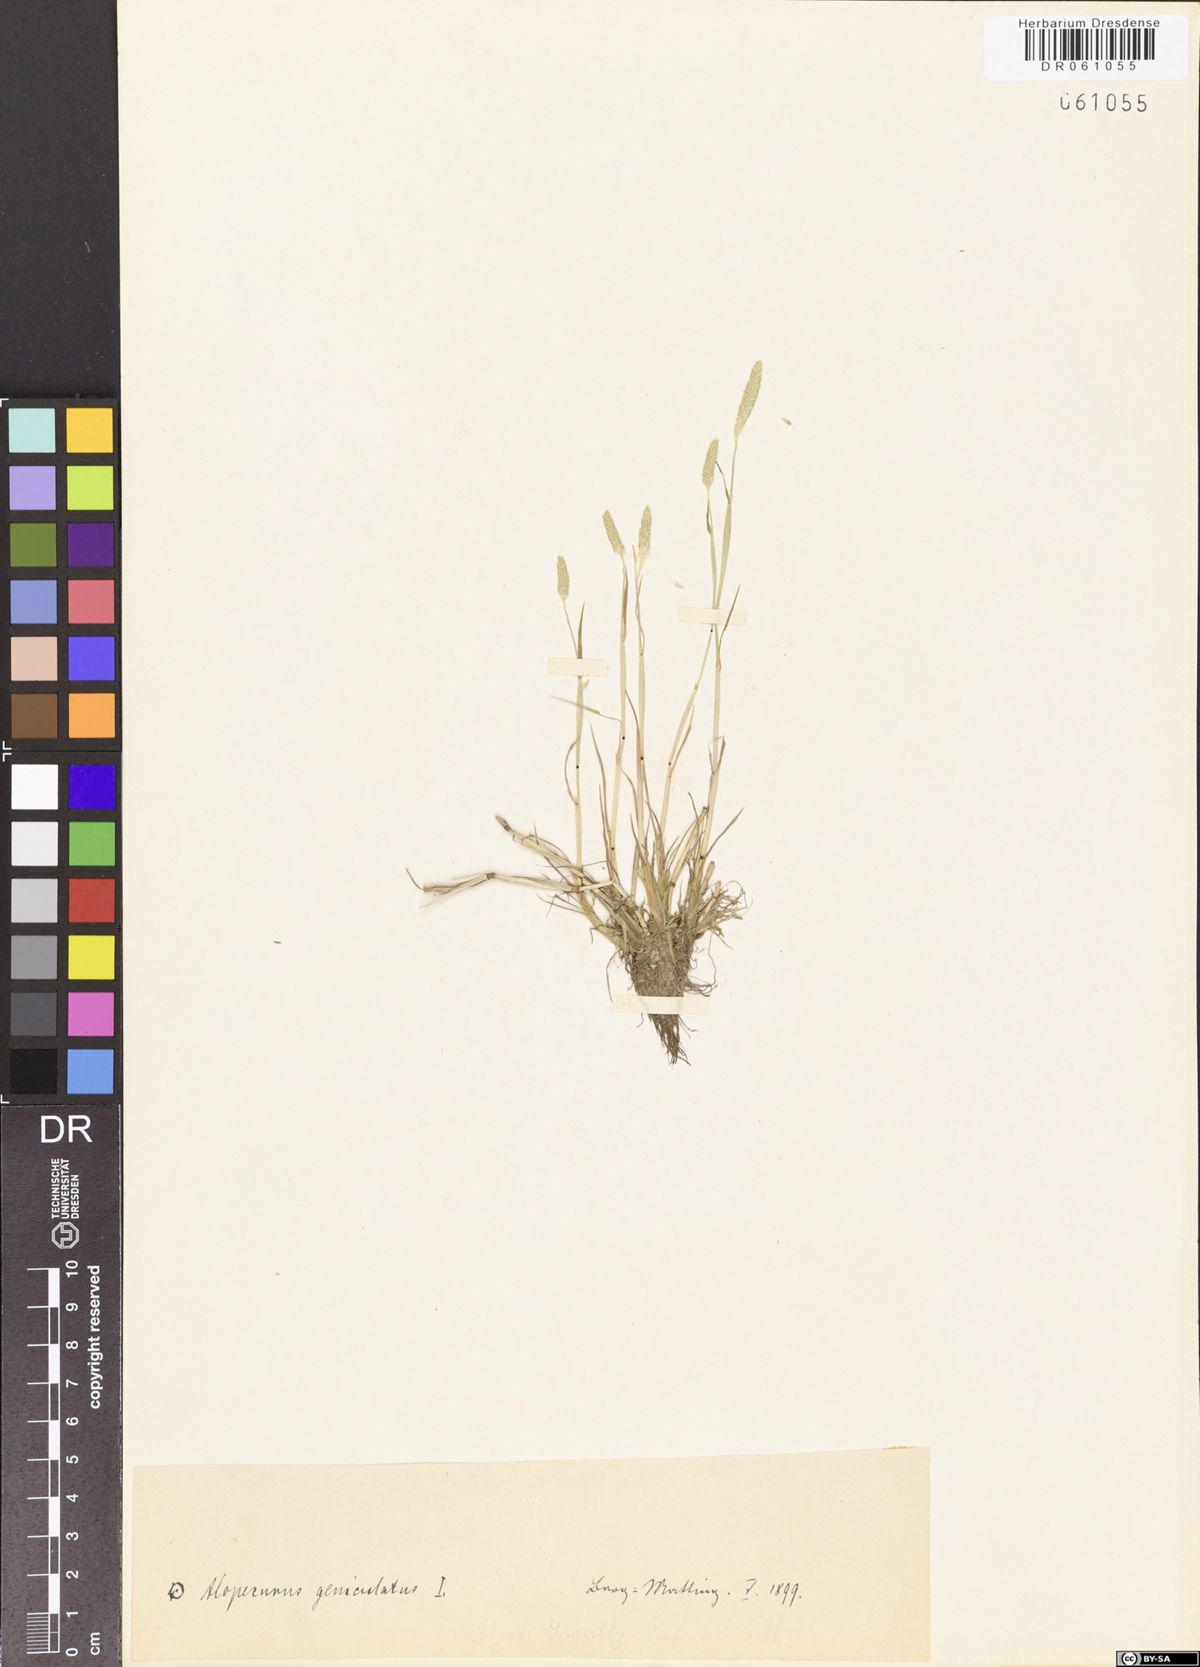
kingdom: Plantae
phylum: Tracheophyta
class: Liliopsida
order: Poales
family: Poaceae
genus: Alopecurus
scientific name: Alopecurus geniculatus
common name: Water foxtail
